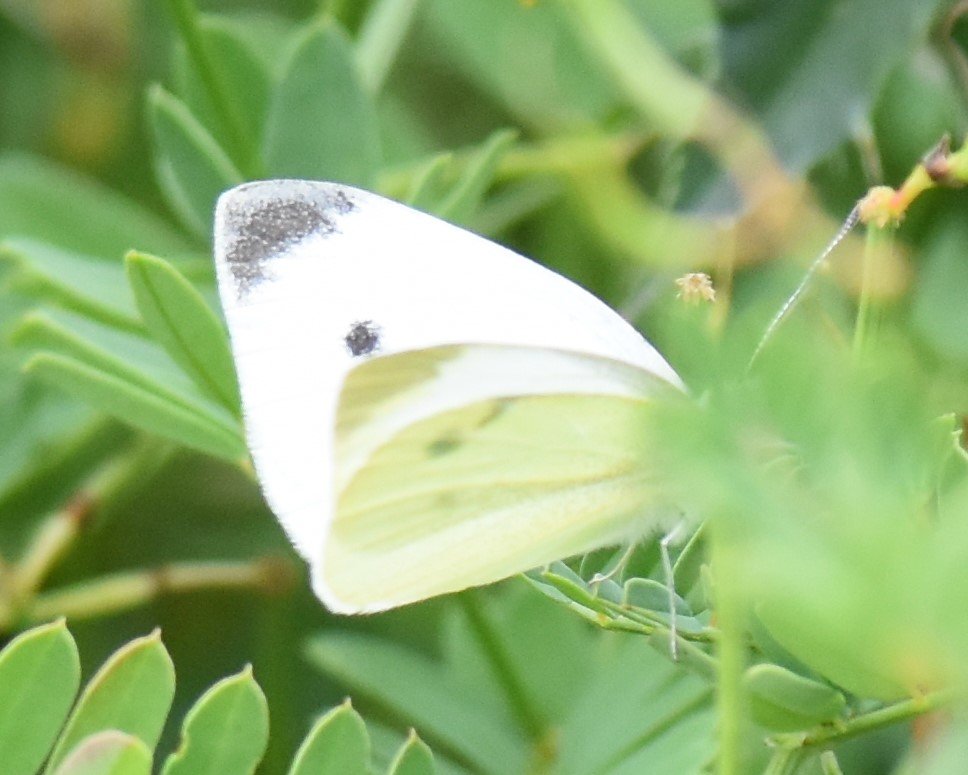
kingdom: Animalia
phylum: Arthropoda
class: Insecta
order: Lepidoptera
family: Pieridae
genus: Pieris
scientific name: Pieris rapae
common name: Cabbage White
